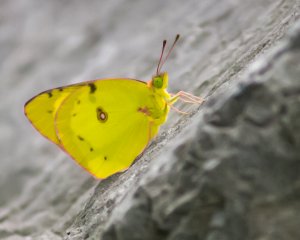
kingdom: Animalia
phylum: Arthropoda
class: Insecta
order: Lepidoptera
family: Pieridae
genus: Colias
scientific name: Colias philodice
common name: Clouded Sulphur
